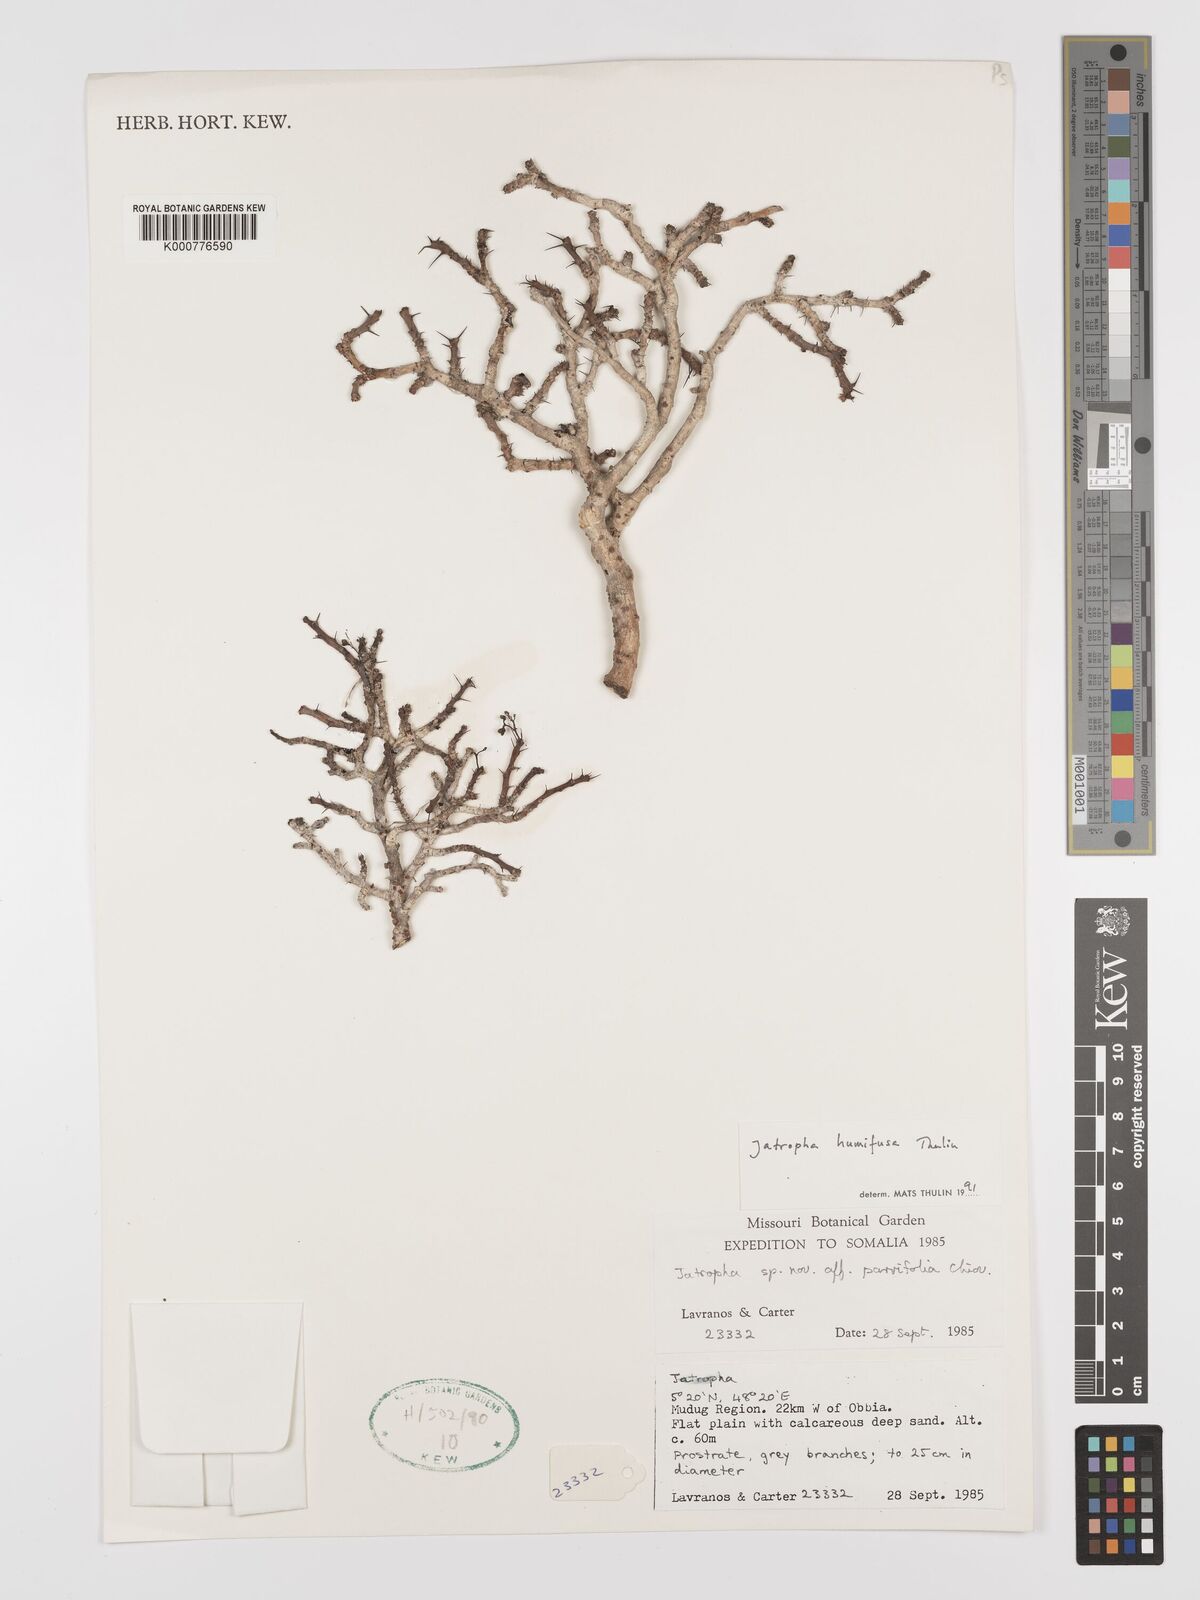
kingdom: Plantae
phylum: Tracheophyta
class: Magnoliopsida
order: Malpighiales
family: Euphorbiaceae
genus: Jatropha
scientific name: Jatropha humifusa
